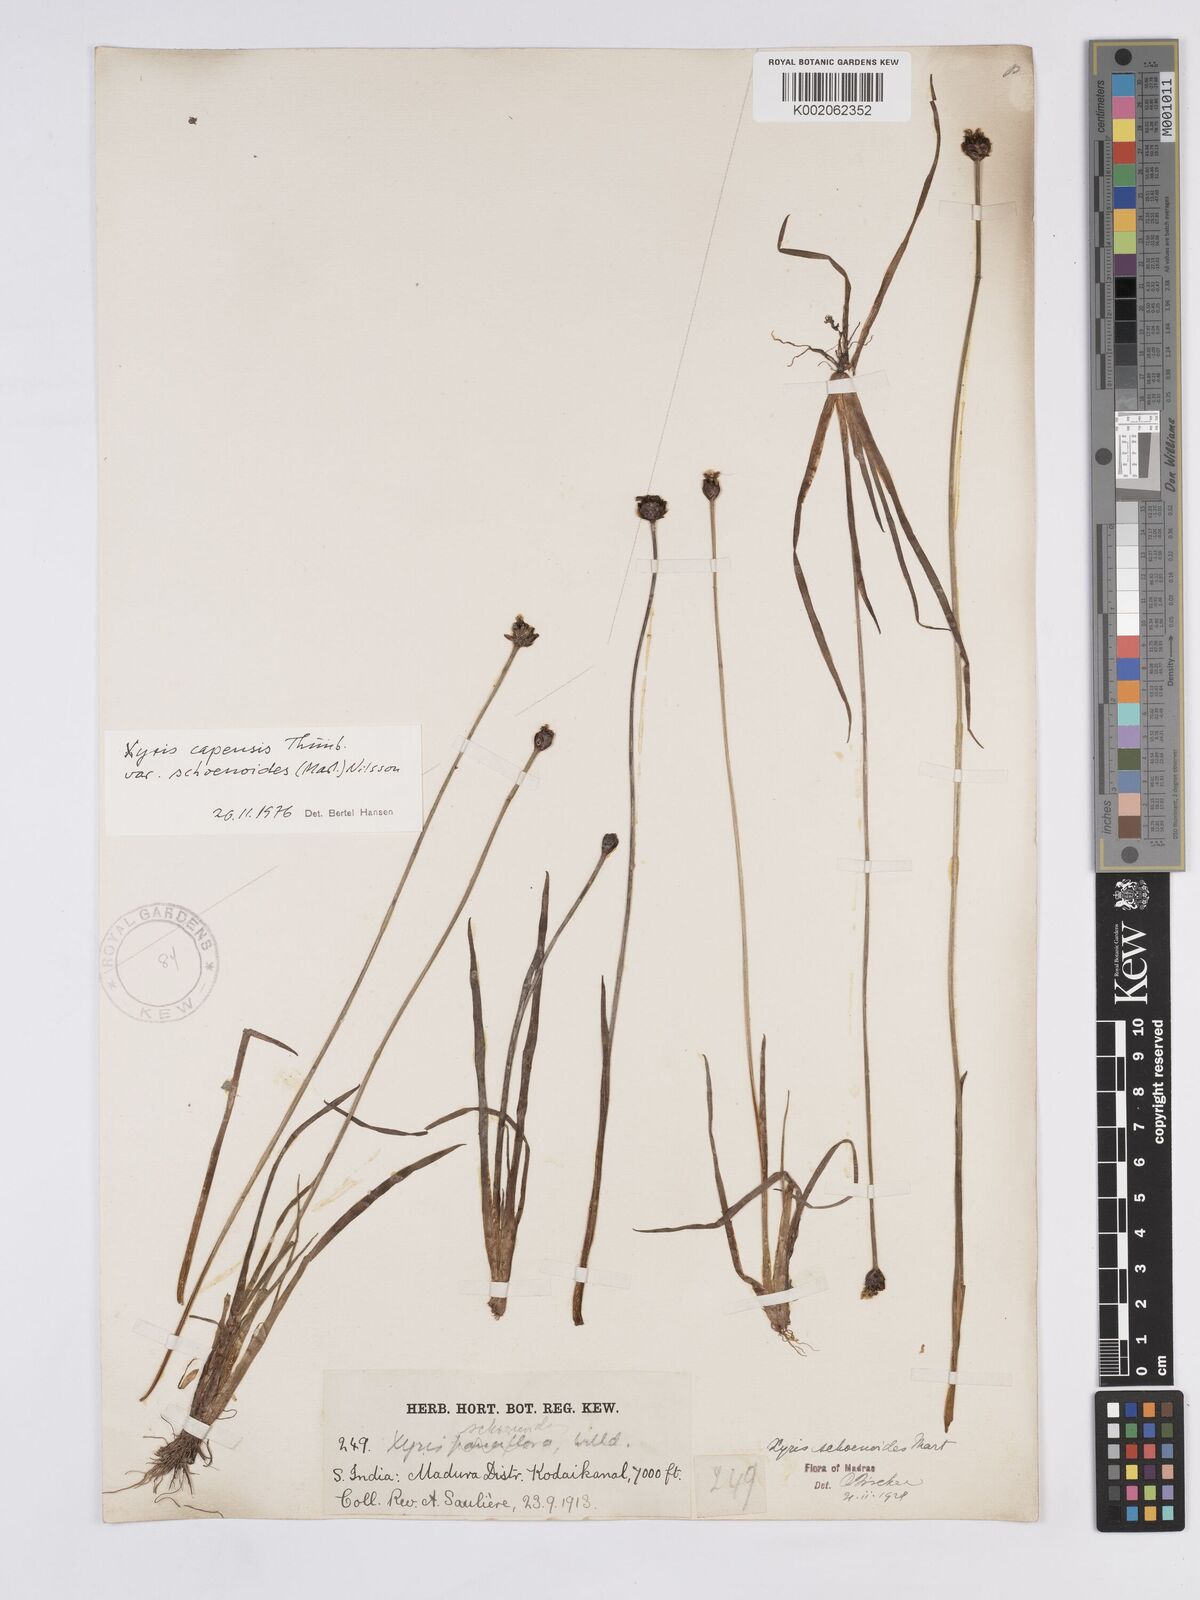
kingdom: Plantae
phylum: Tracheophyta
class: Liliopsida
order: Poales
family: Xyridaceae
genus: Xyris
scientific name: Xyris capensis
